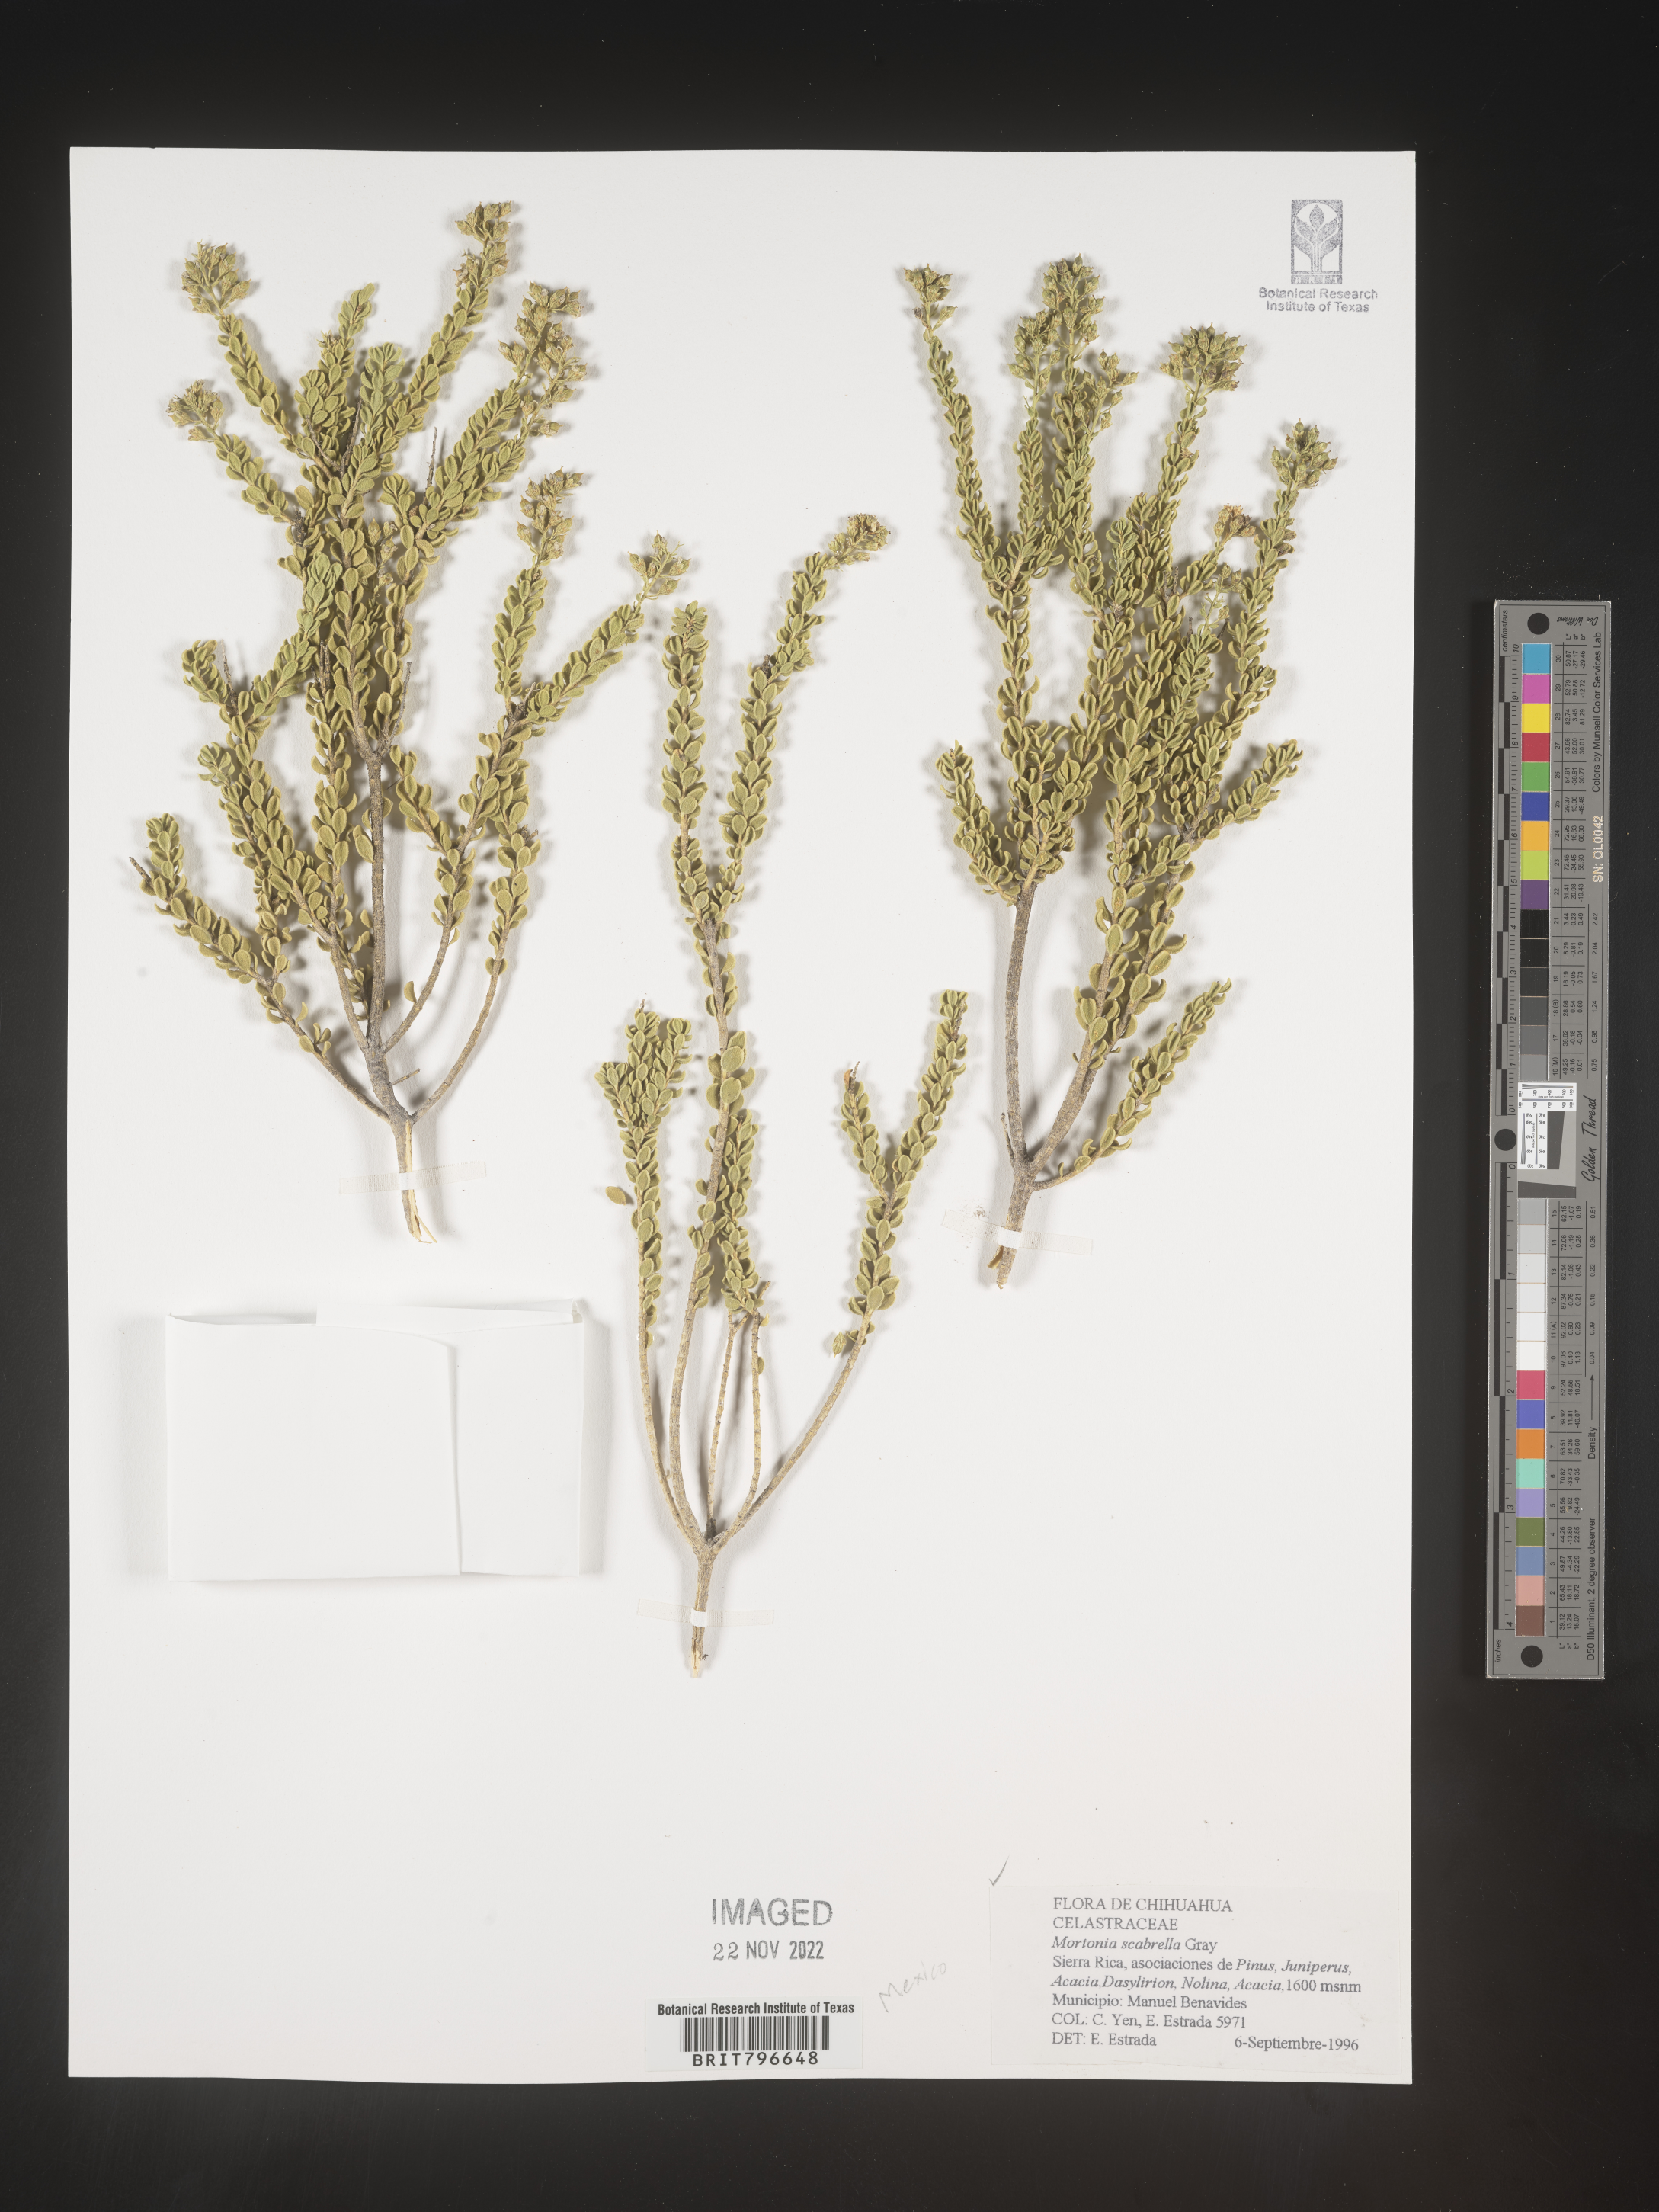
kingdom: Plantae
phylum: Tracheophyta
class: Magnoliopsida
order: Celastrales
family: Celastraceae
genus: Mortonia
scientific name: Mortonia
